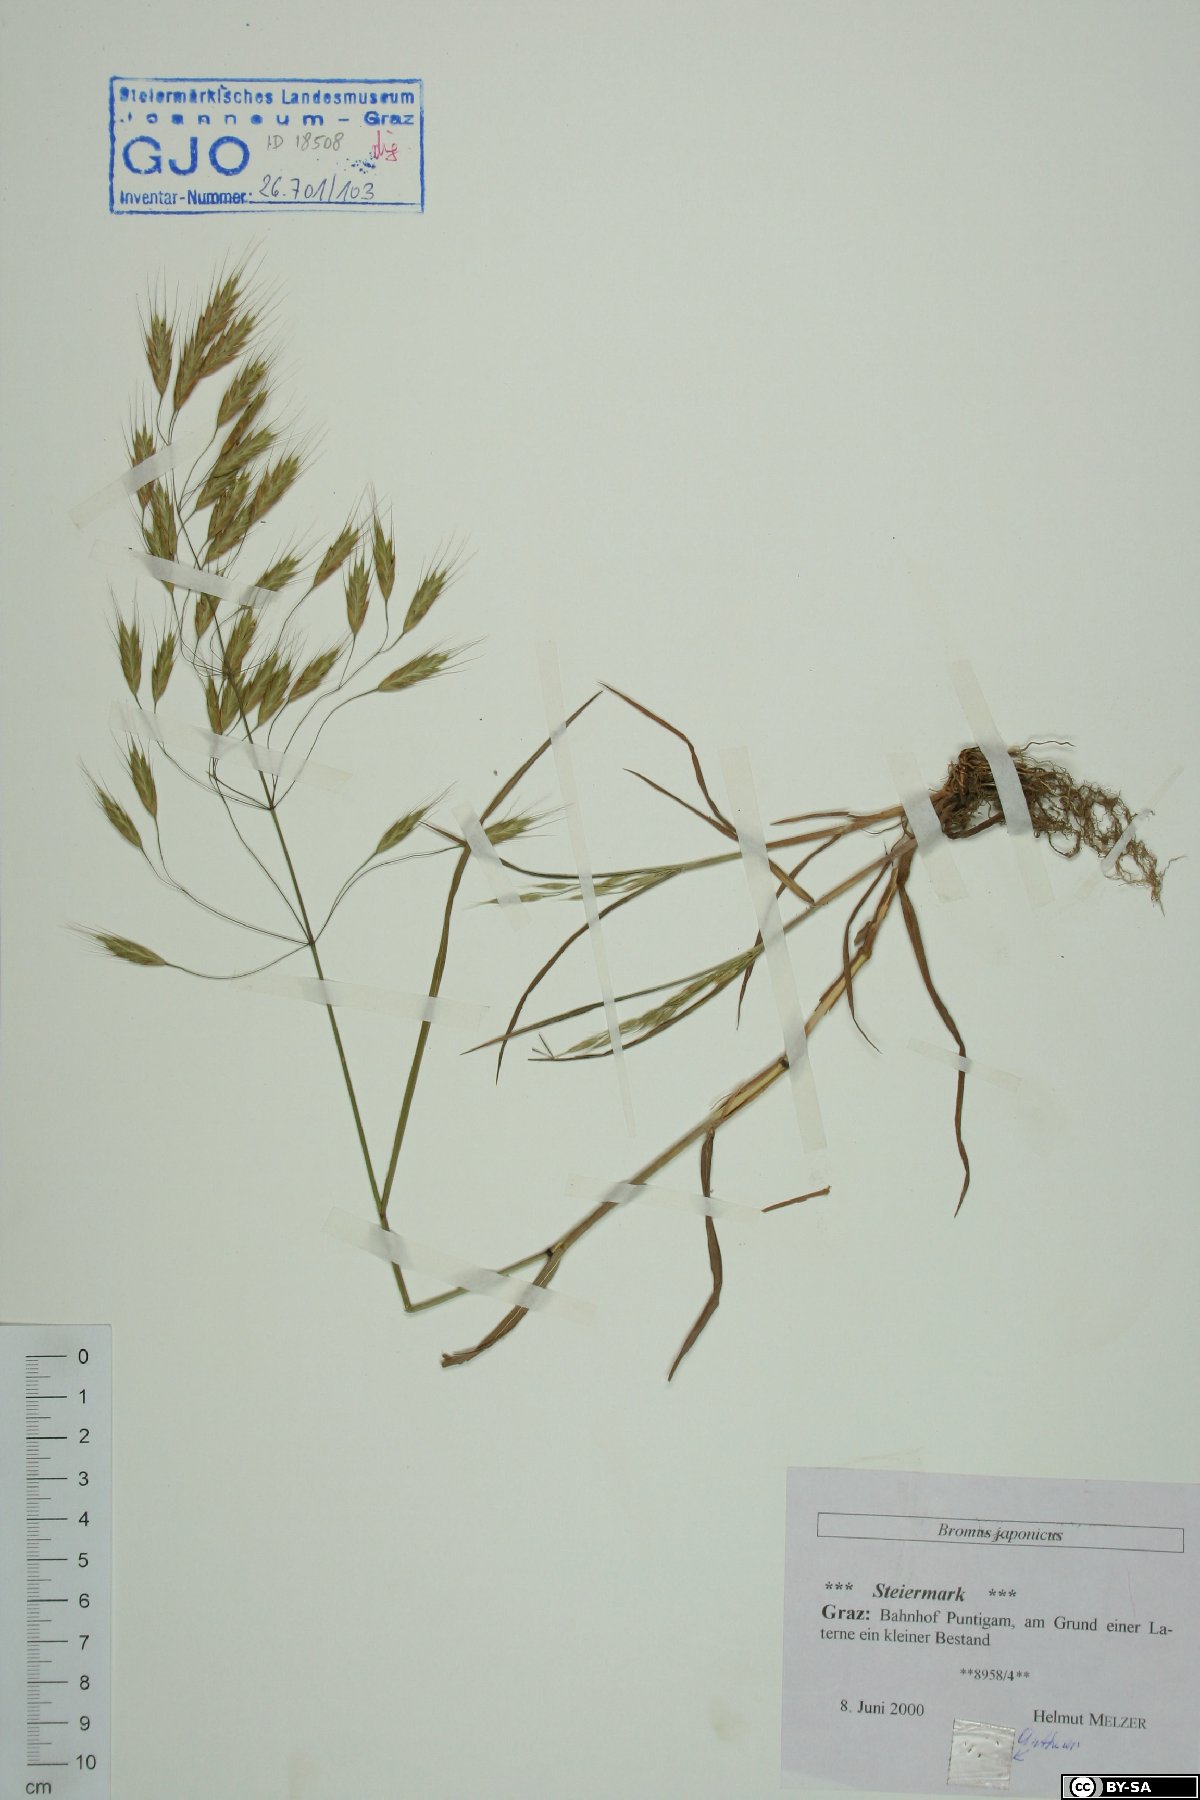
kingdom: Plantae
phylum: Tracheophyta
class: Liliopsida
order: Poales
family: Poaceae
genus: Bromus
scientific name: Bromus japonicus
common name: Japanese brome
